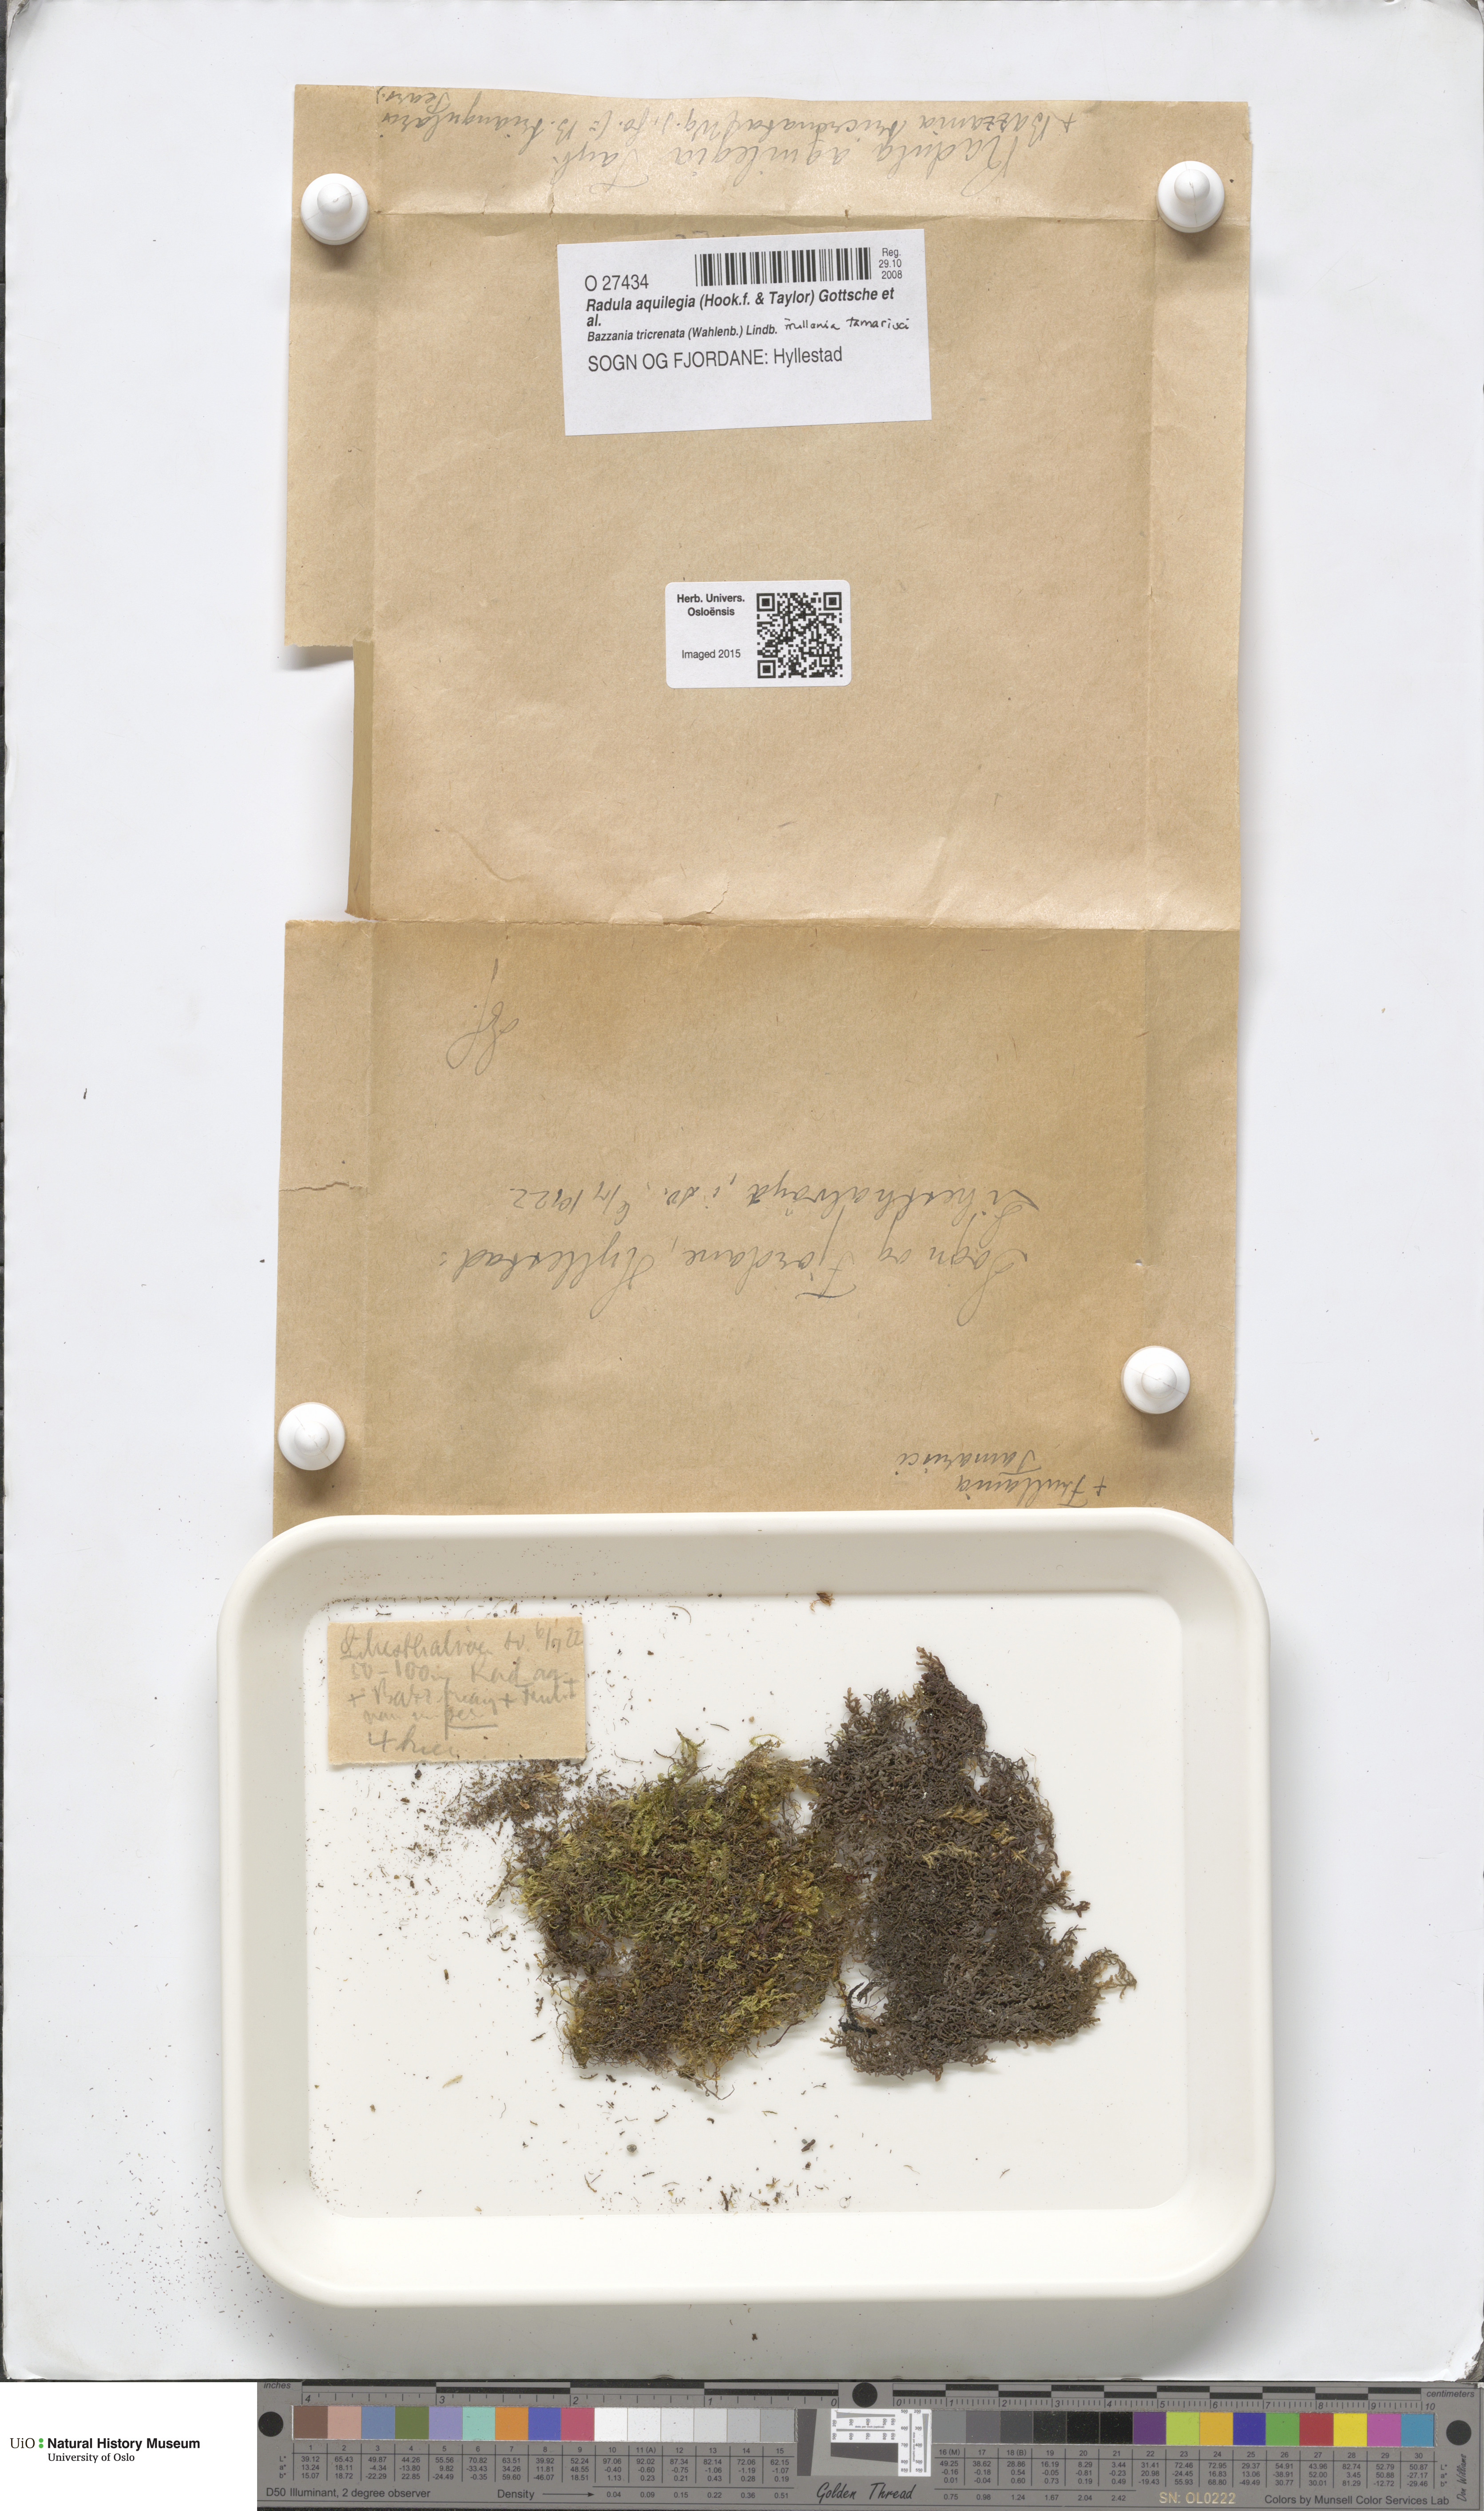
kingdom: Plantae
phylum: Marchantiophyta
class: Jungermanniopsida
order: Porellales
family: Radulaceae
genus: Radula
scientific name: Radula aquilegia
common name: Brown scalewort
